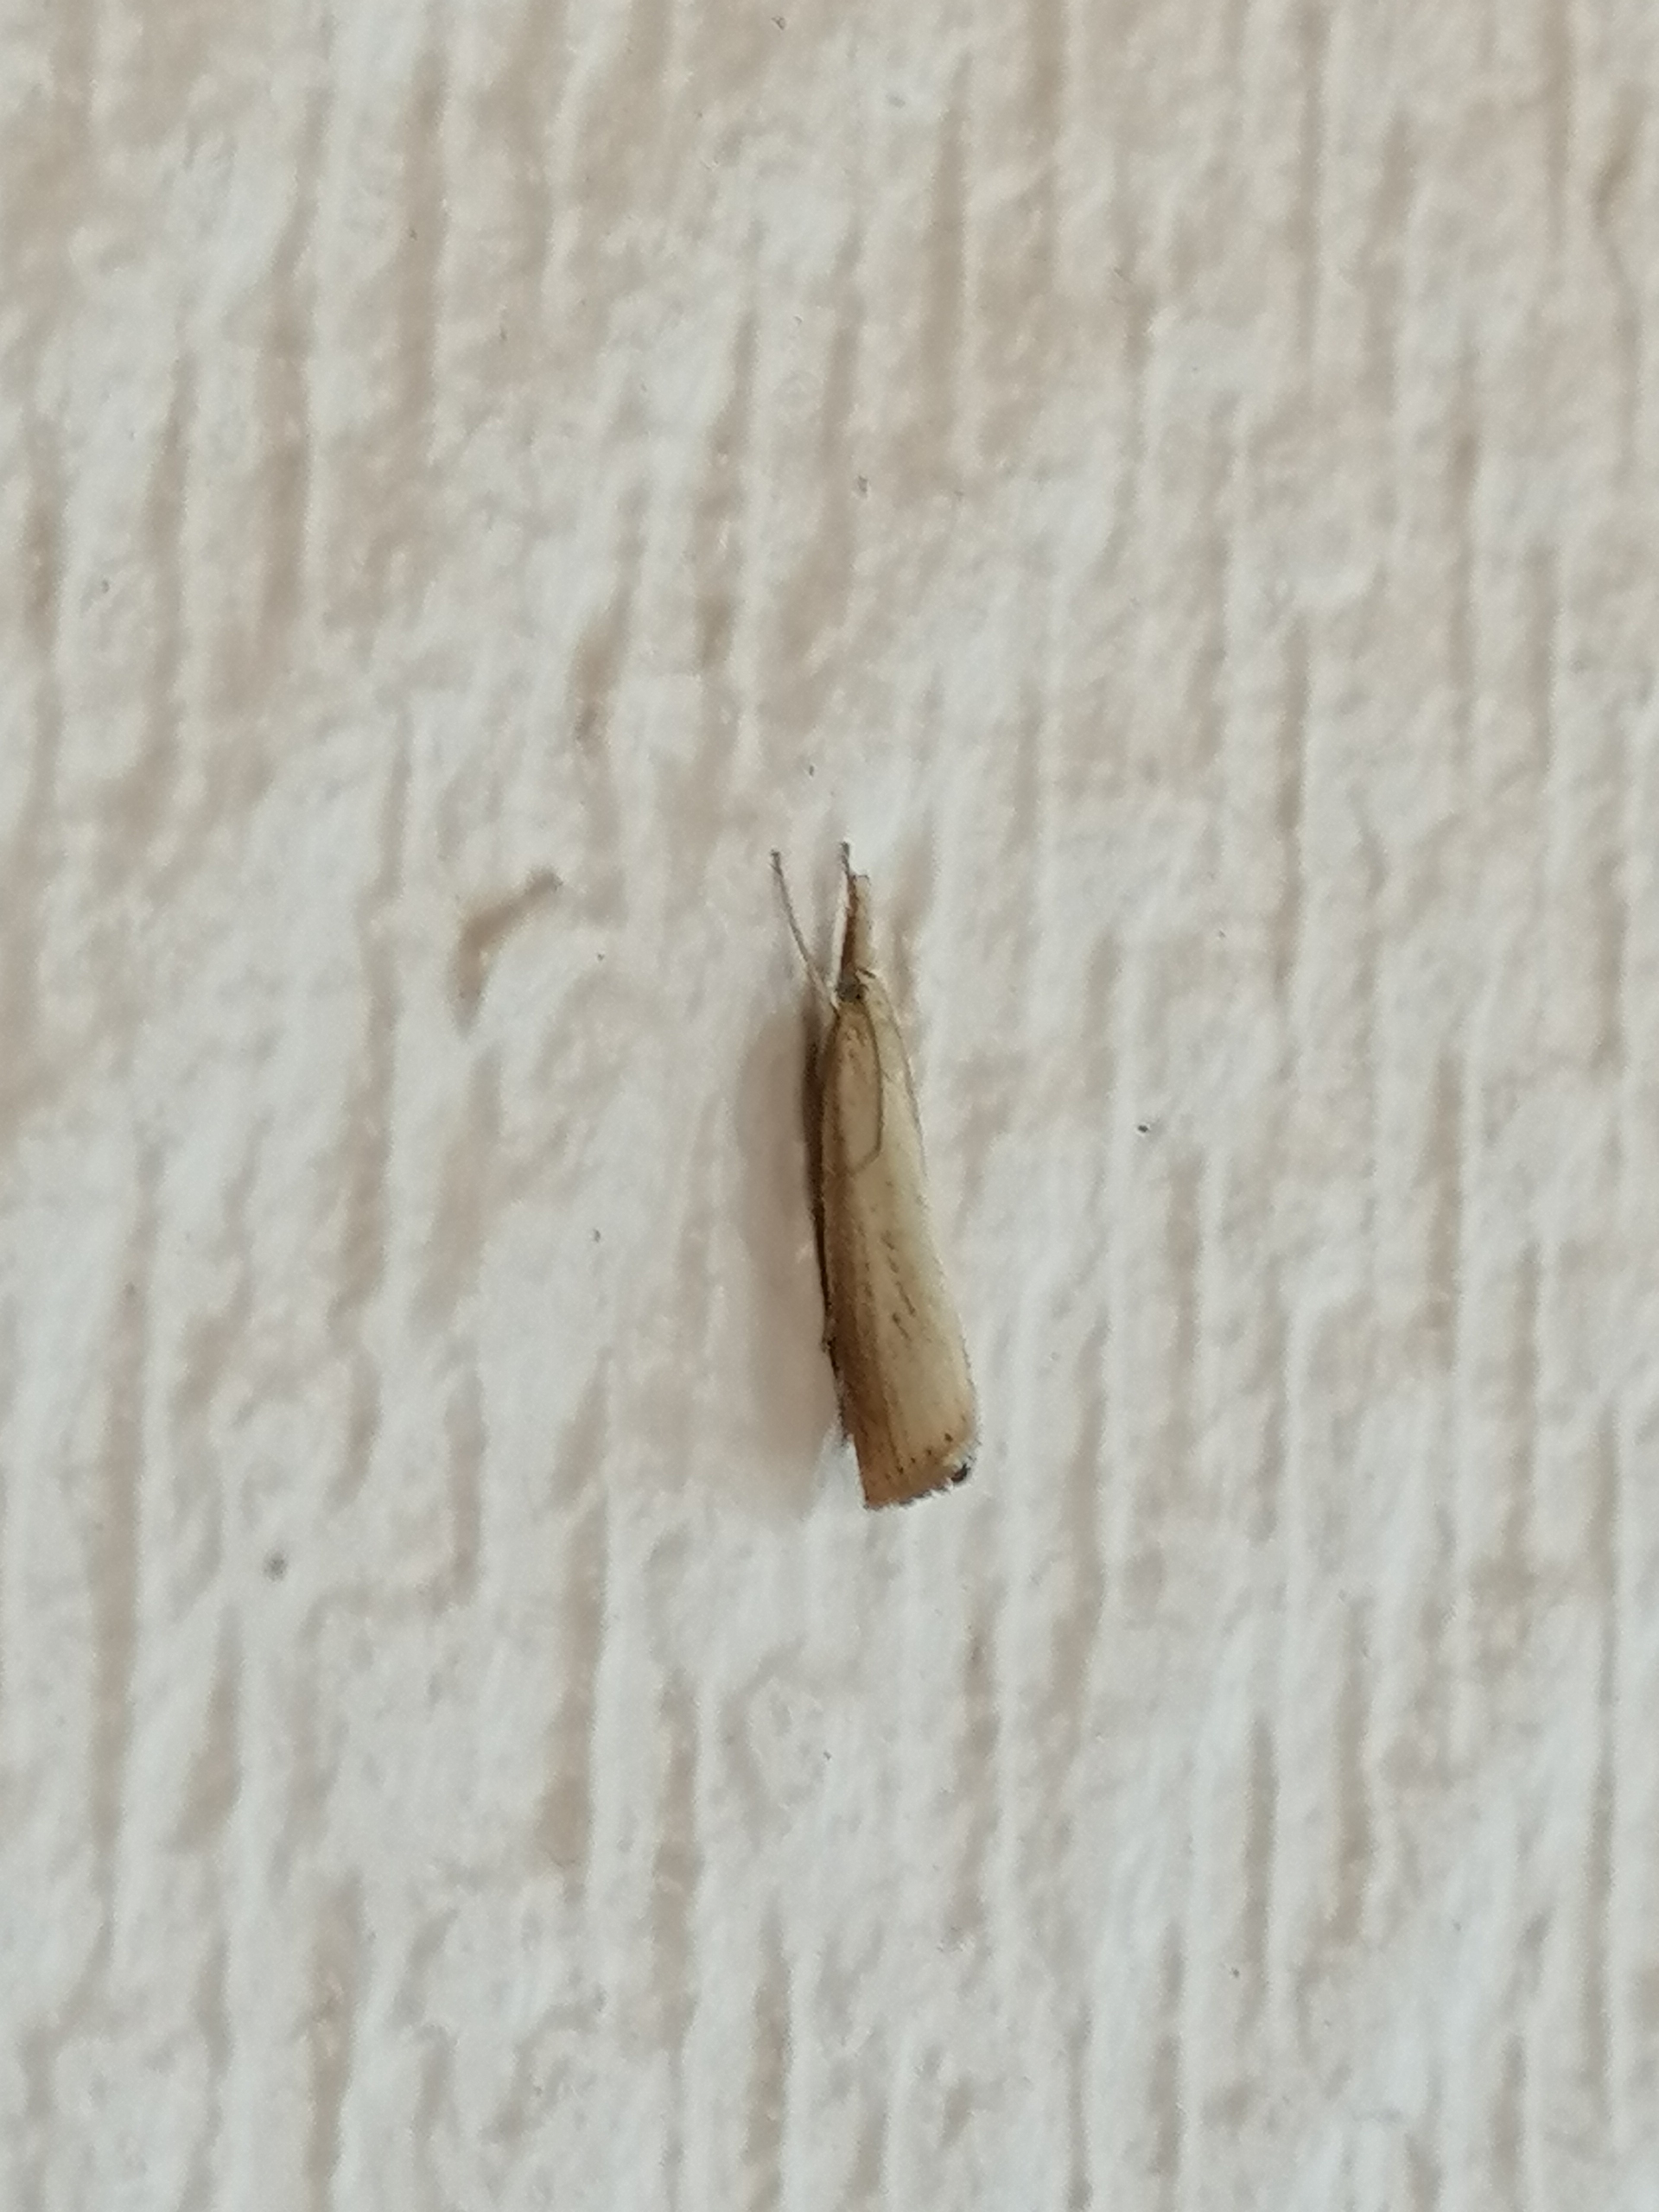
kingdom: Animalia
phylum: Arthropoda
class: Insecta
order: Lepidoptera
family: Crambidae
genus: Agriphila
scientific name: Agriphila straminella
